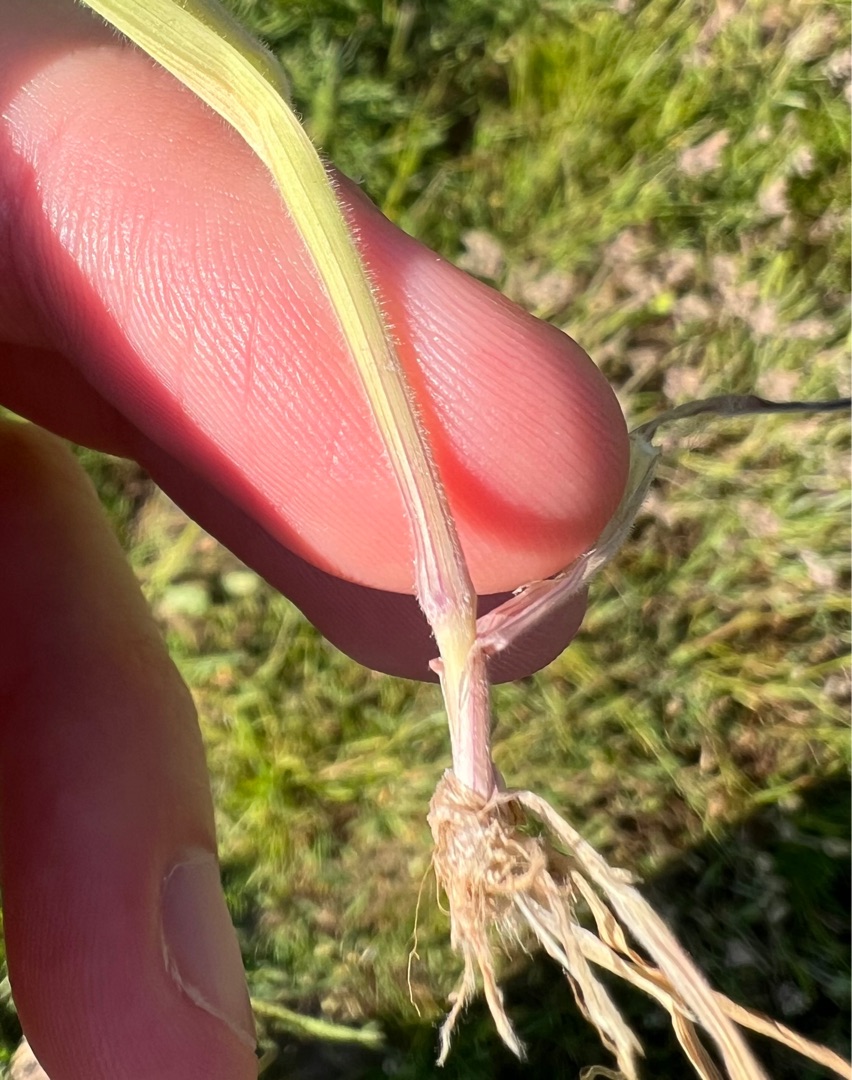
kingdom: Plantae
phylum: Tracheophyta
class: Liliopsida
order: Poales
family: Poaceae
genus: Holcus
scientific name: Holcus lanatus
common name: Fløjlsgræs
